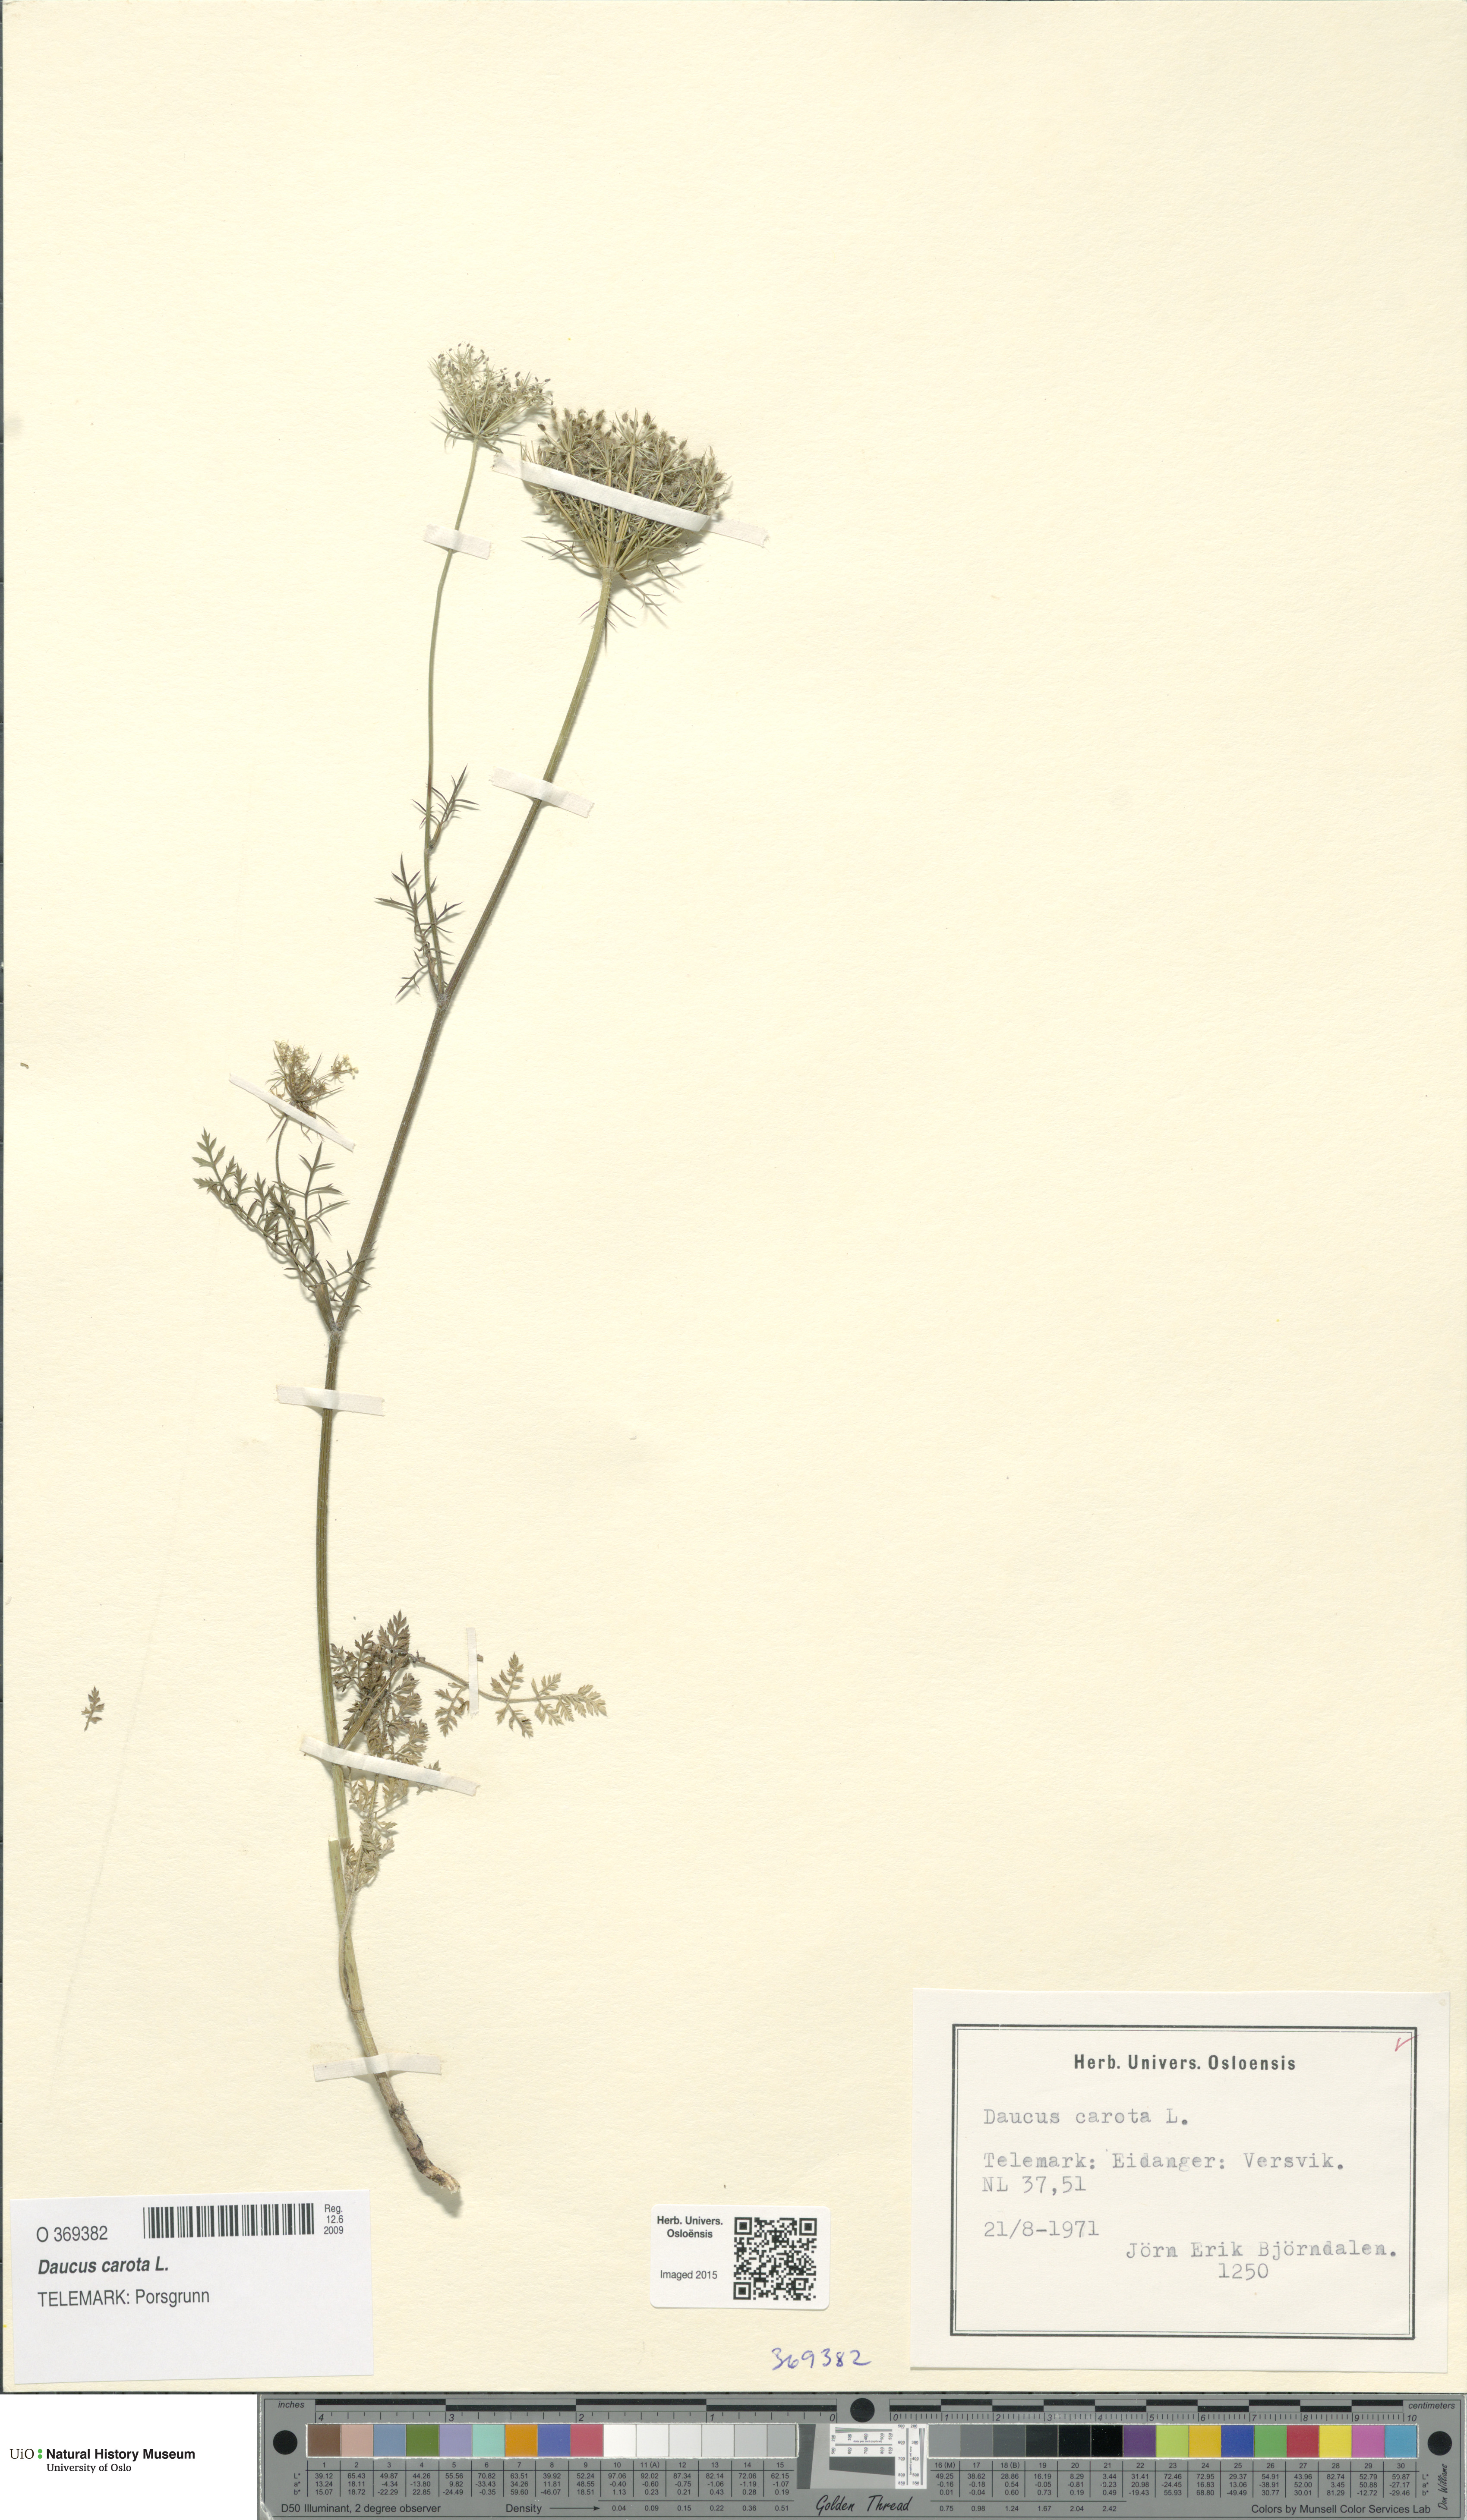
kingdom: Plantae
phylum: Tracheophyta
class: Magnoliopsida
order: Apiales
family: Apiaceae
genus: Daucus
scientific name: Daucus carota
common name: Wild carrot
